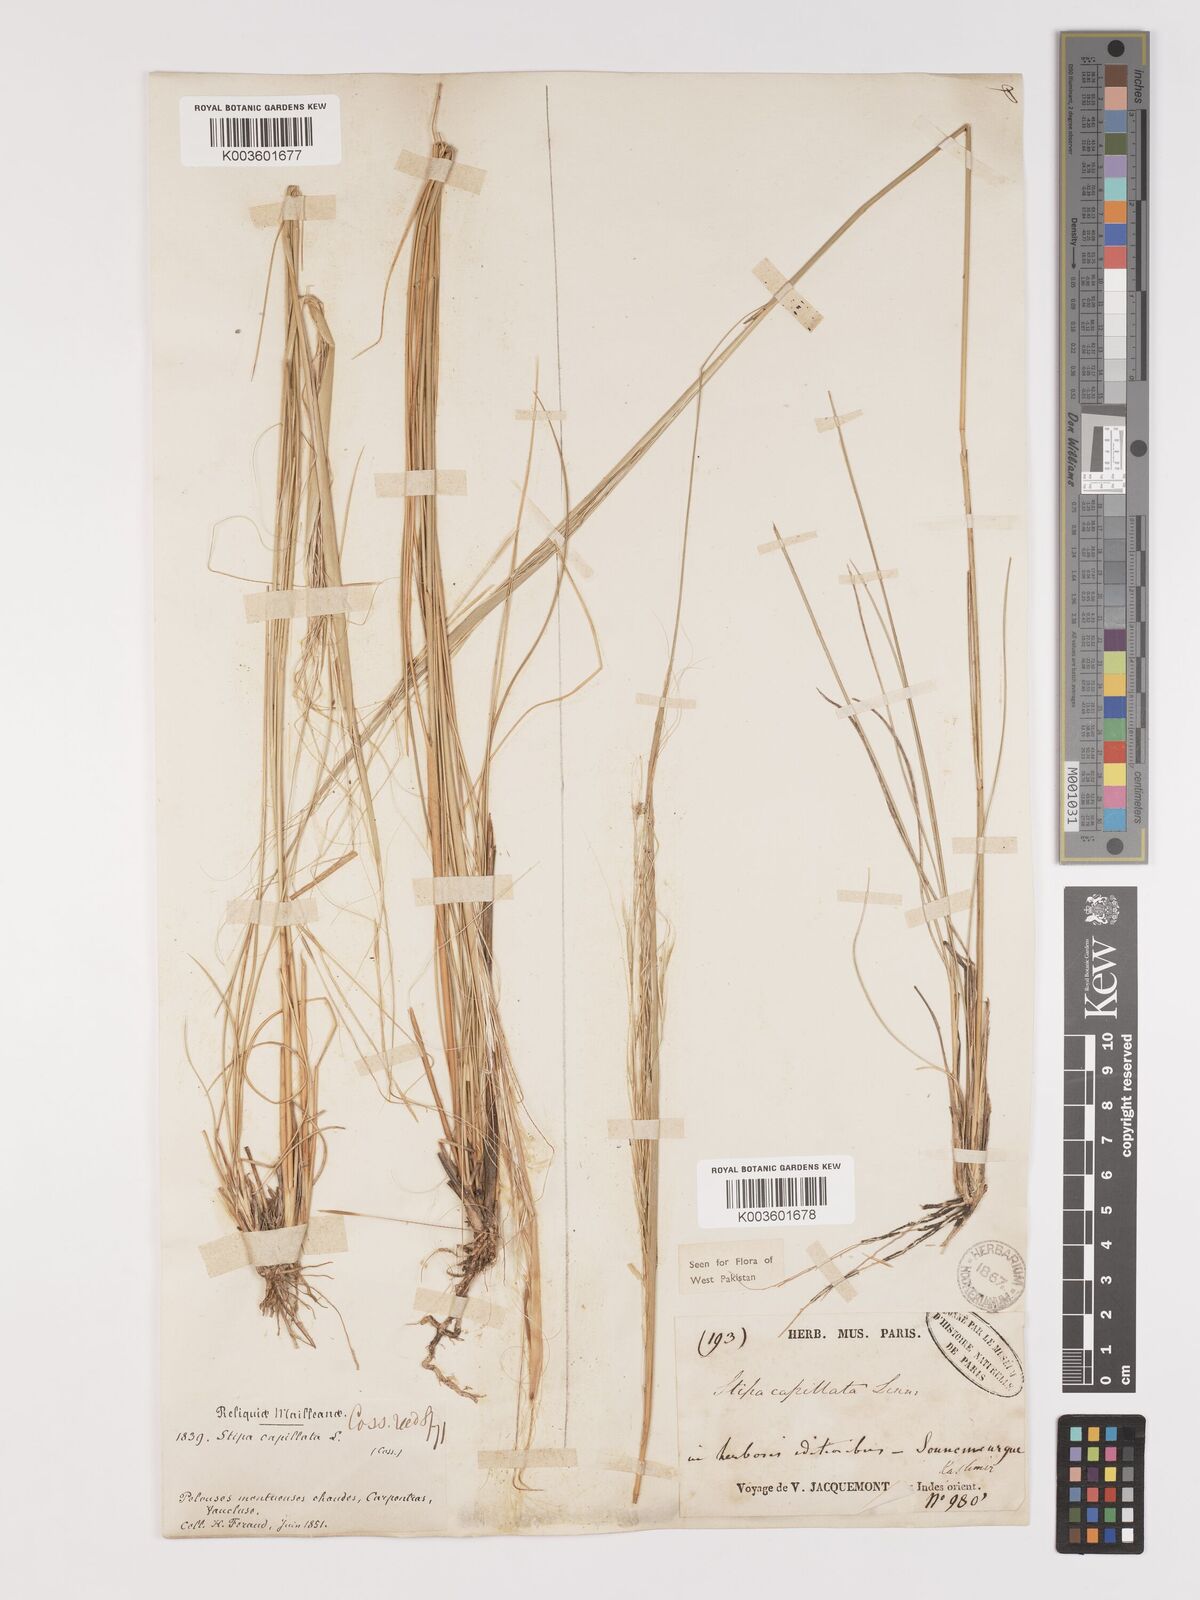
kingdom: Plantae
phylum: Tracheophyta
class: Liliopsida
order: Poales
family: Poaceae
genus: Stipa
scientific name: Stipa capillata
